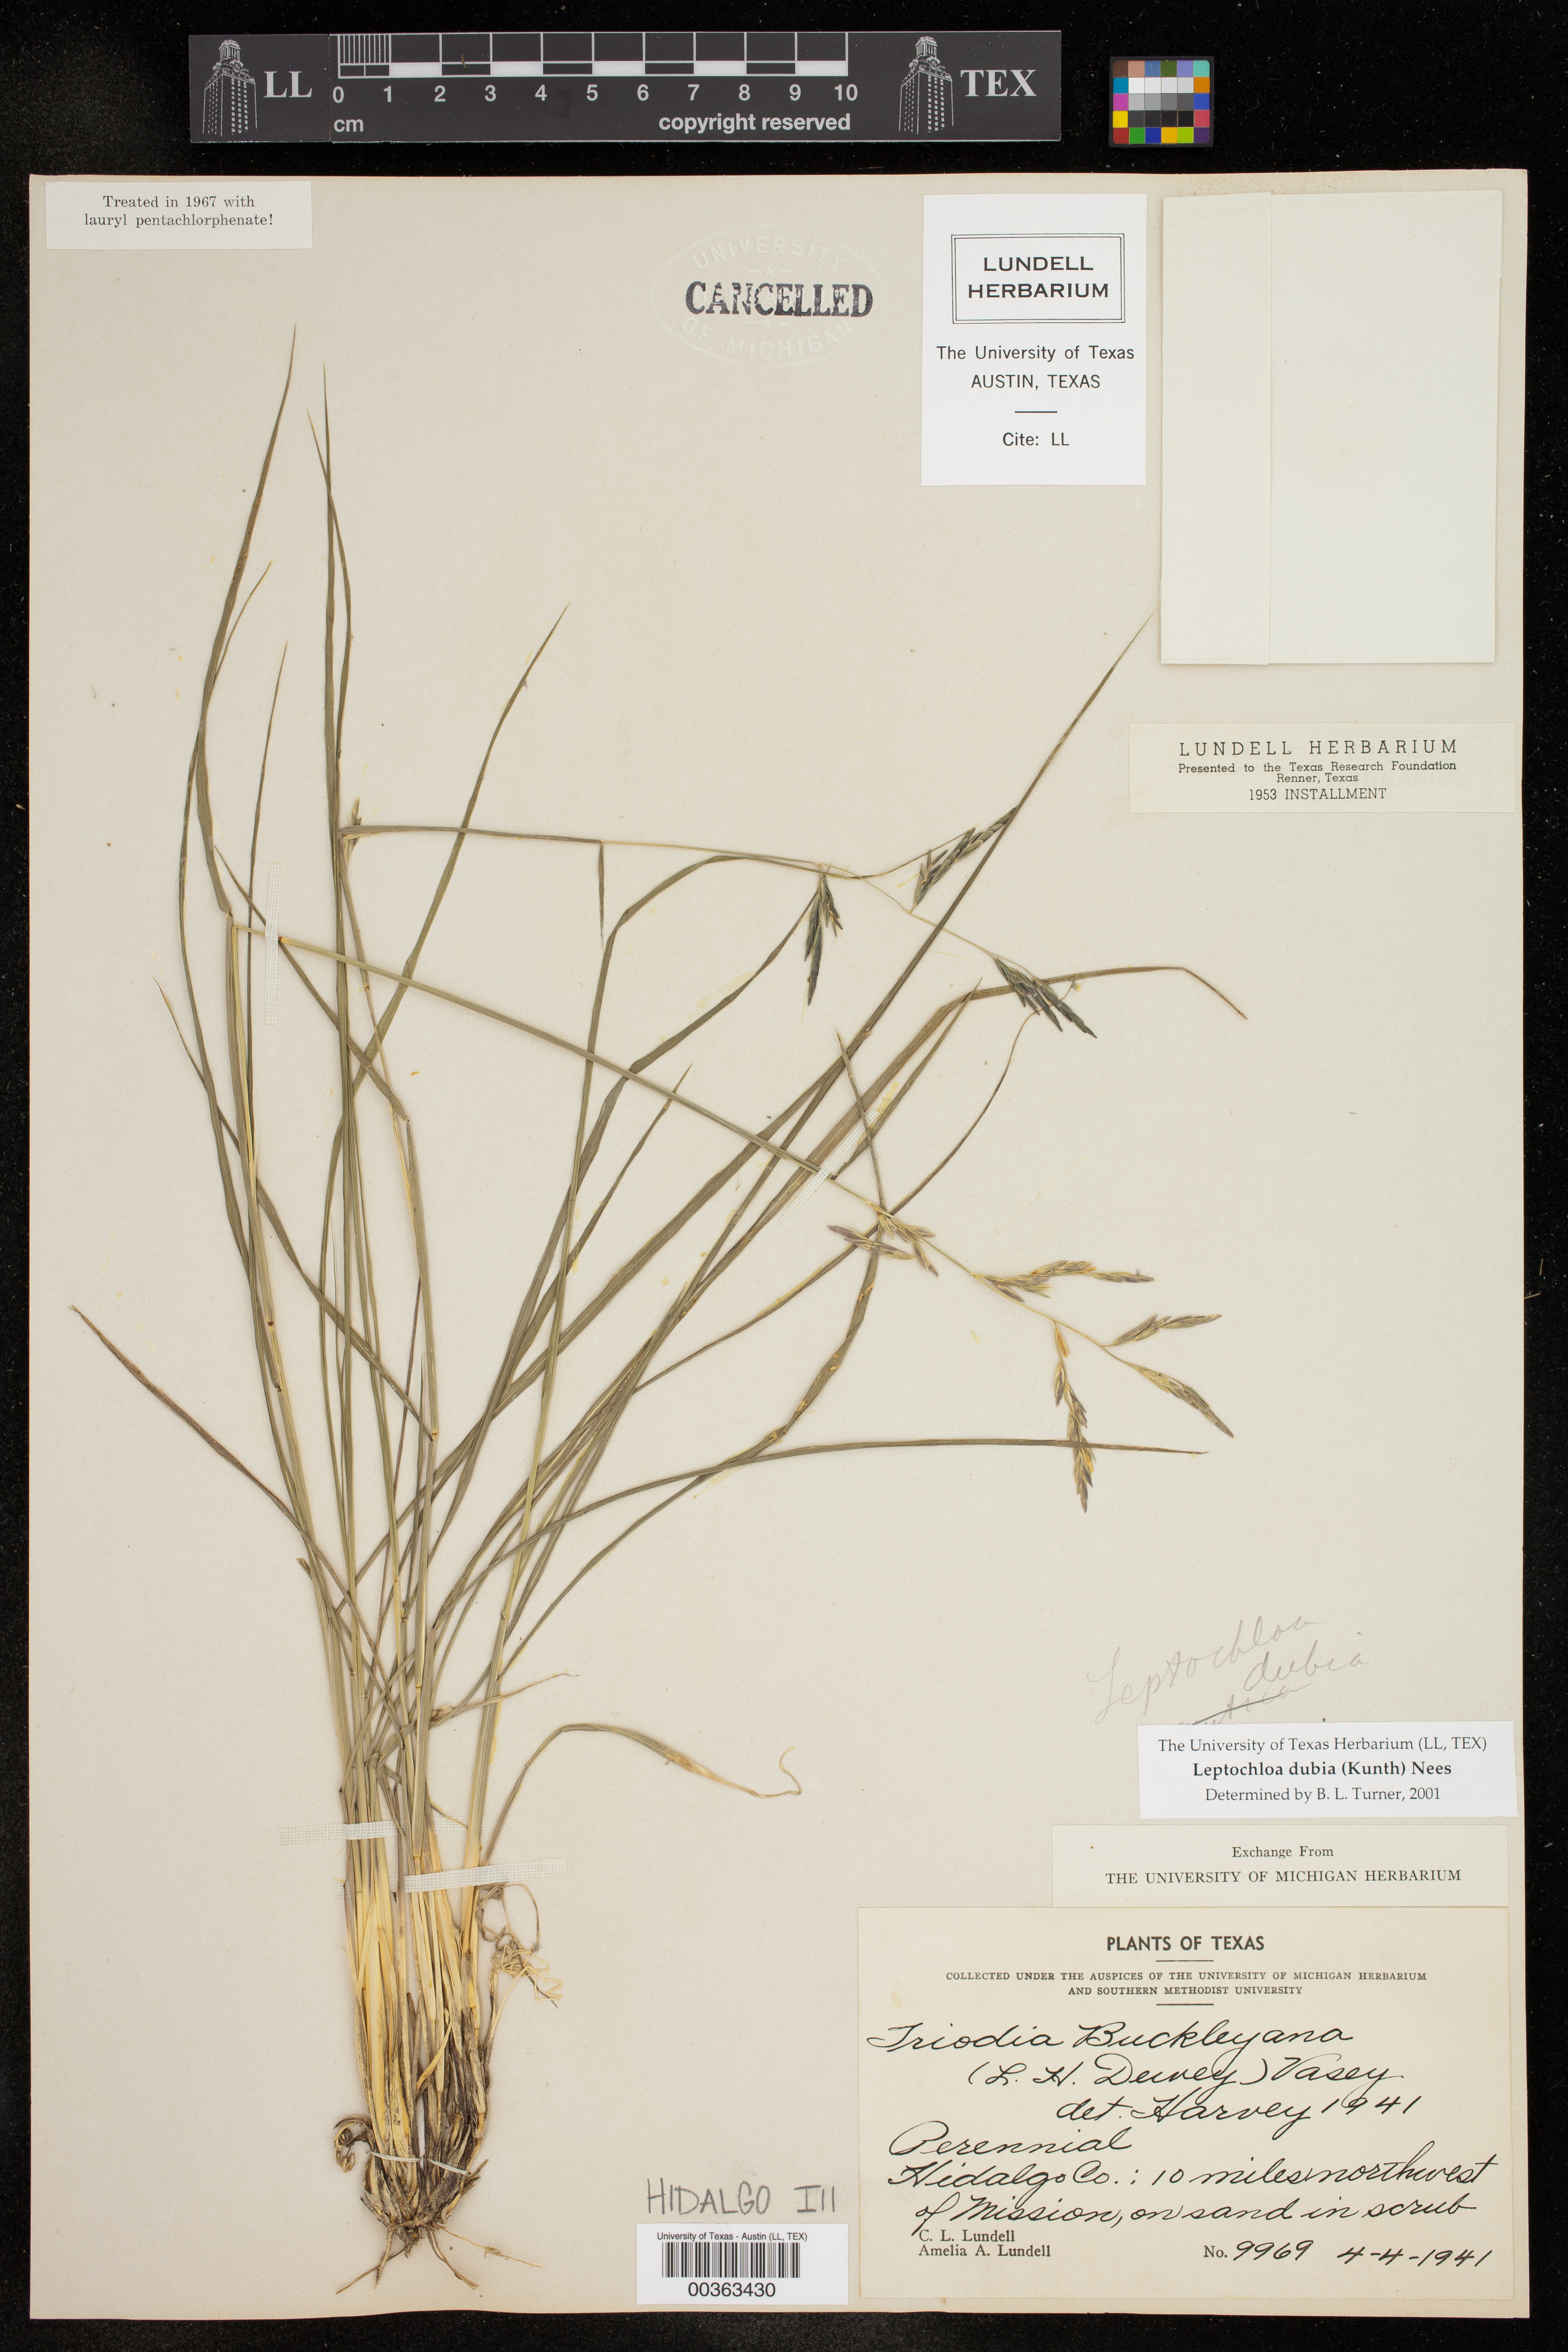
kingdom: Plantae
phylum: Tracheophyta
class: Liliopsida
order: Poales
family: Poaceae
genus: Disakisperma
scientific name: Disakisperma dubium
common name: Green sprangletop
